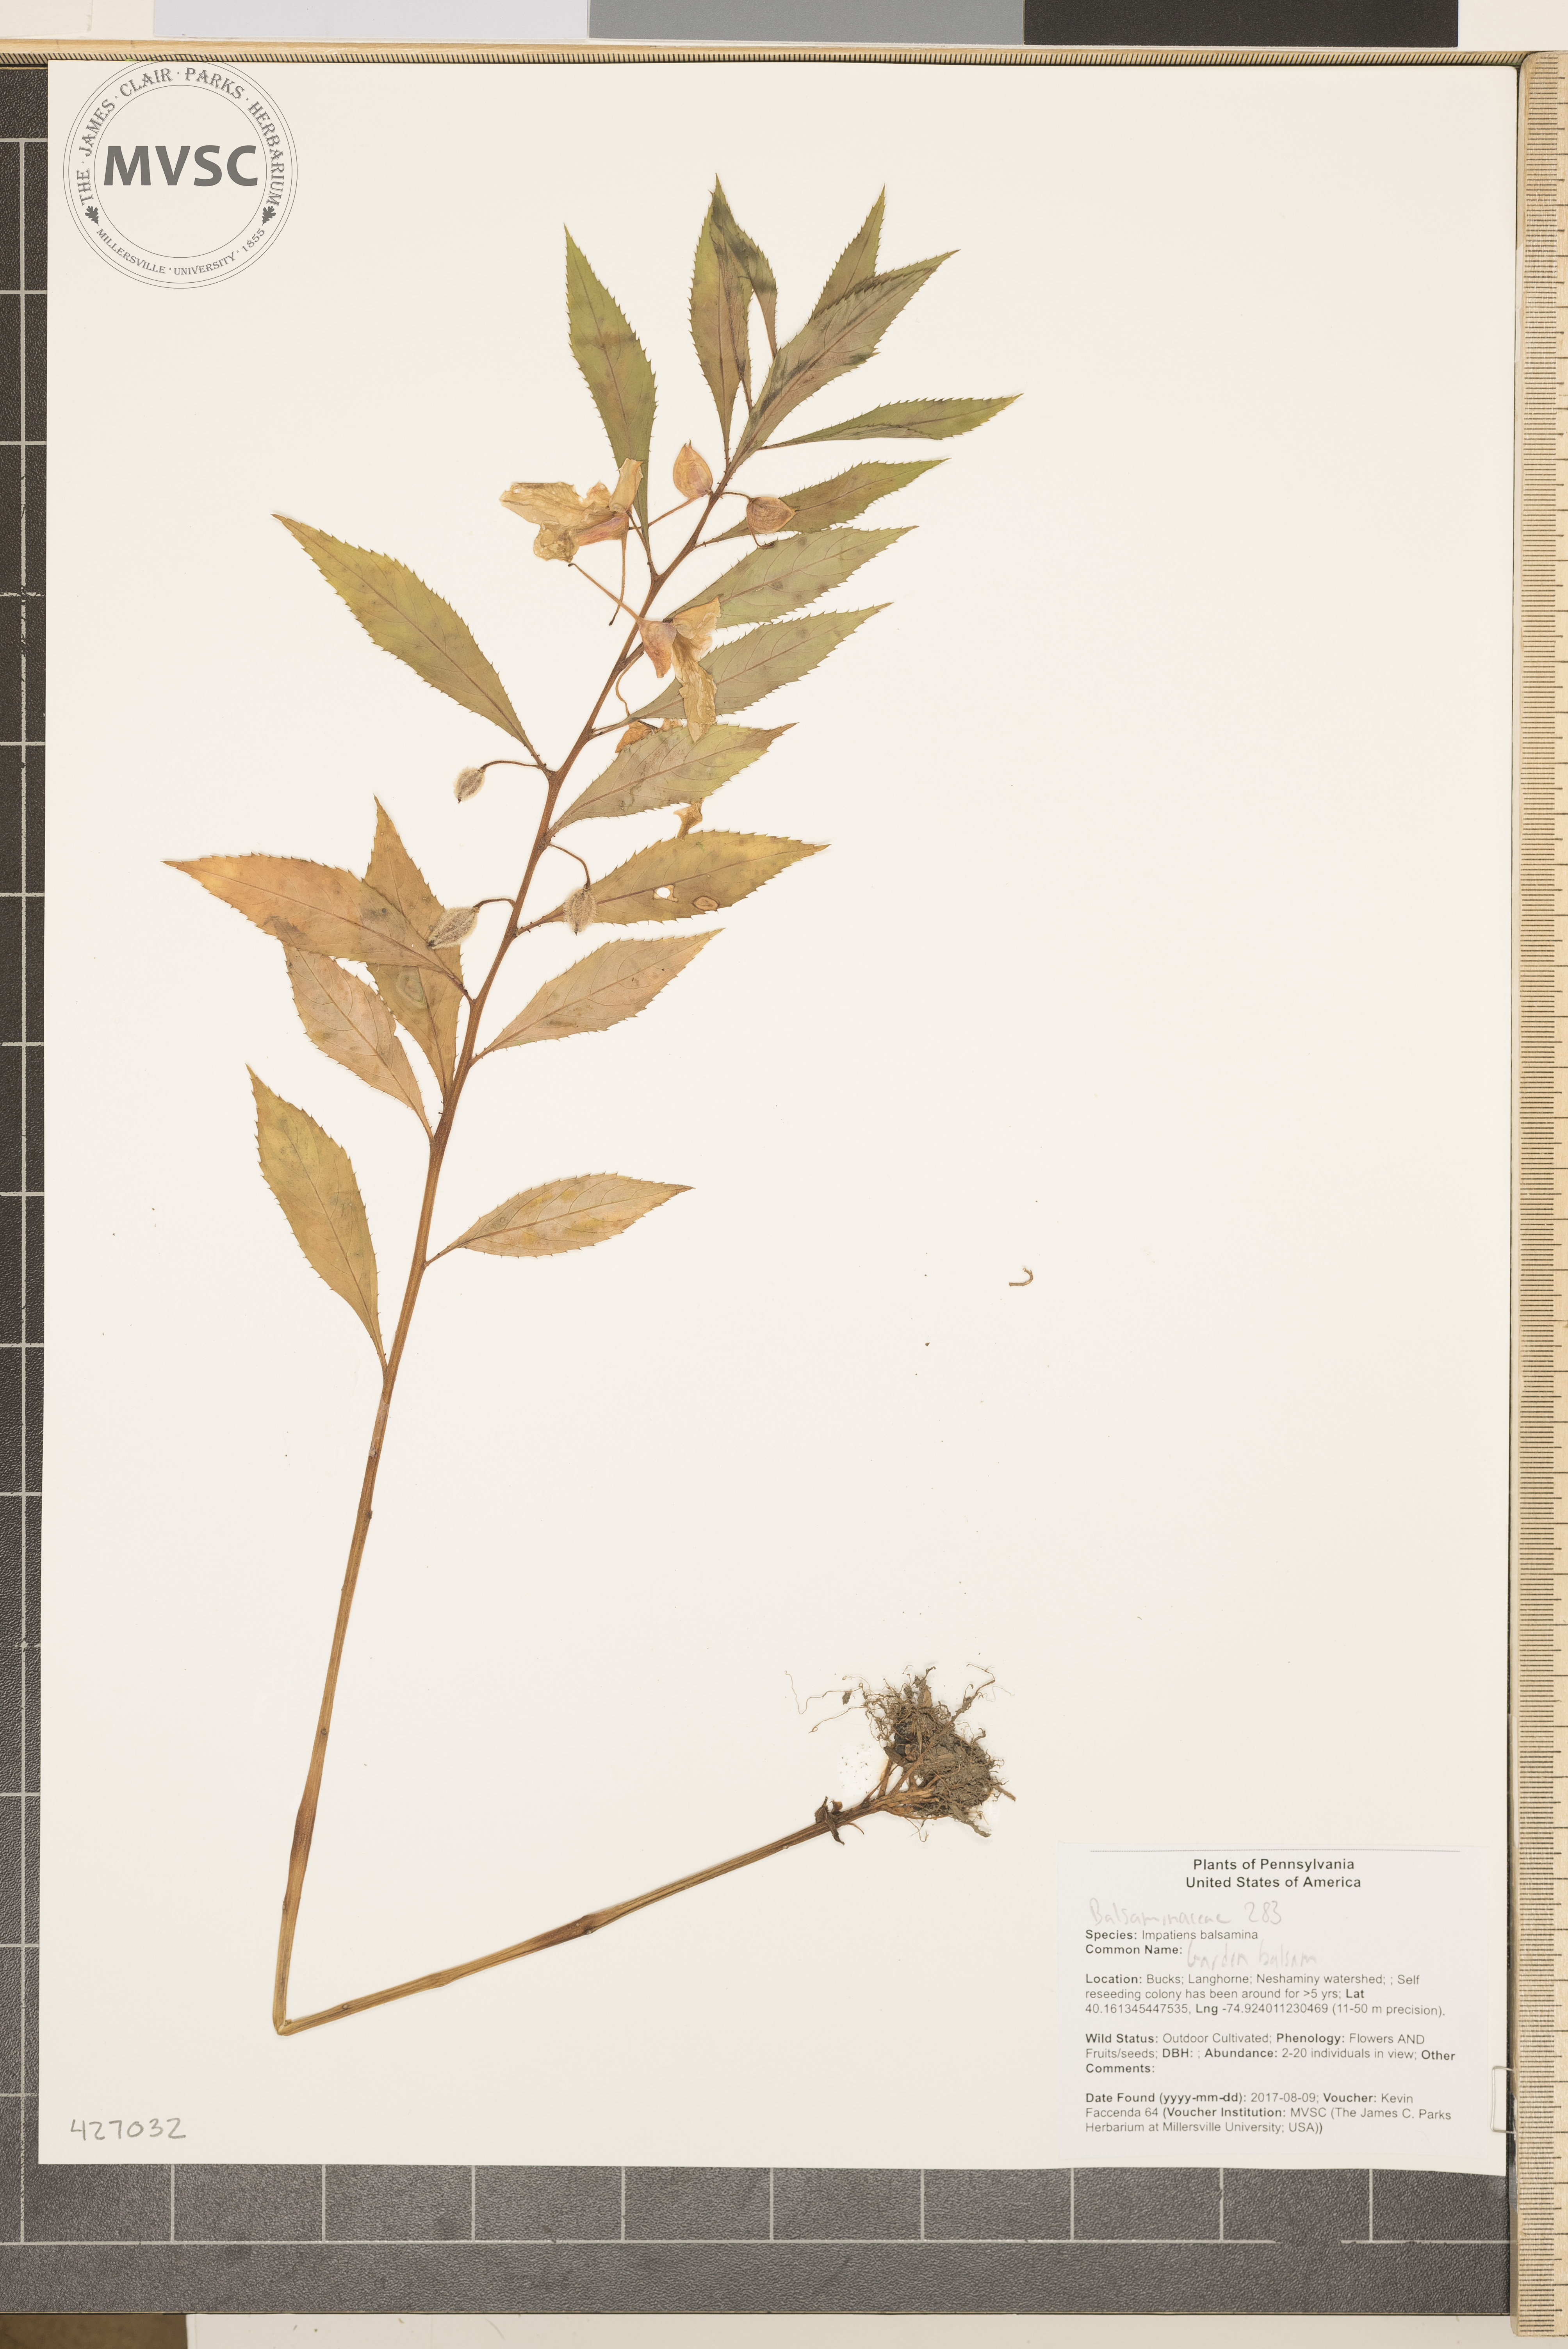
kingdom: Plantae
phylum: Tracheophyta
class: Magnoliopsida
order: Ericales
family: Balsaminaceae
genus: Impatiens
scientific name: Impatiens balsamina
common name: Balsam
